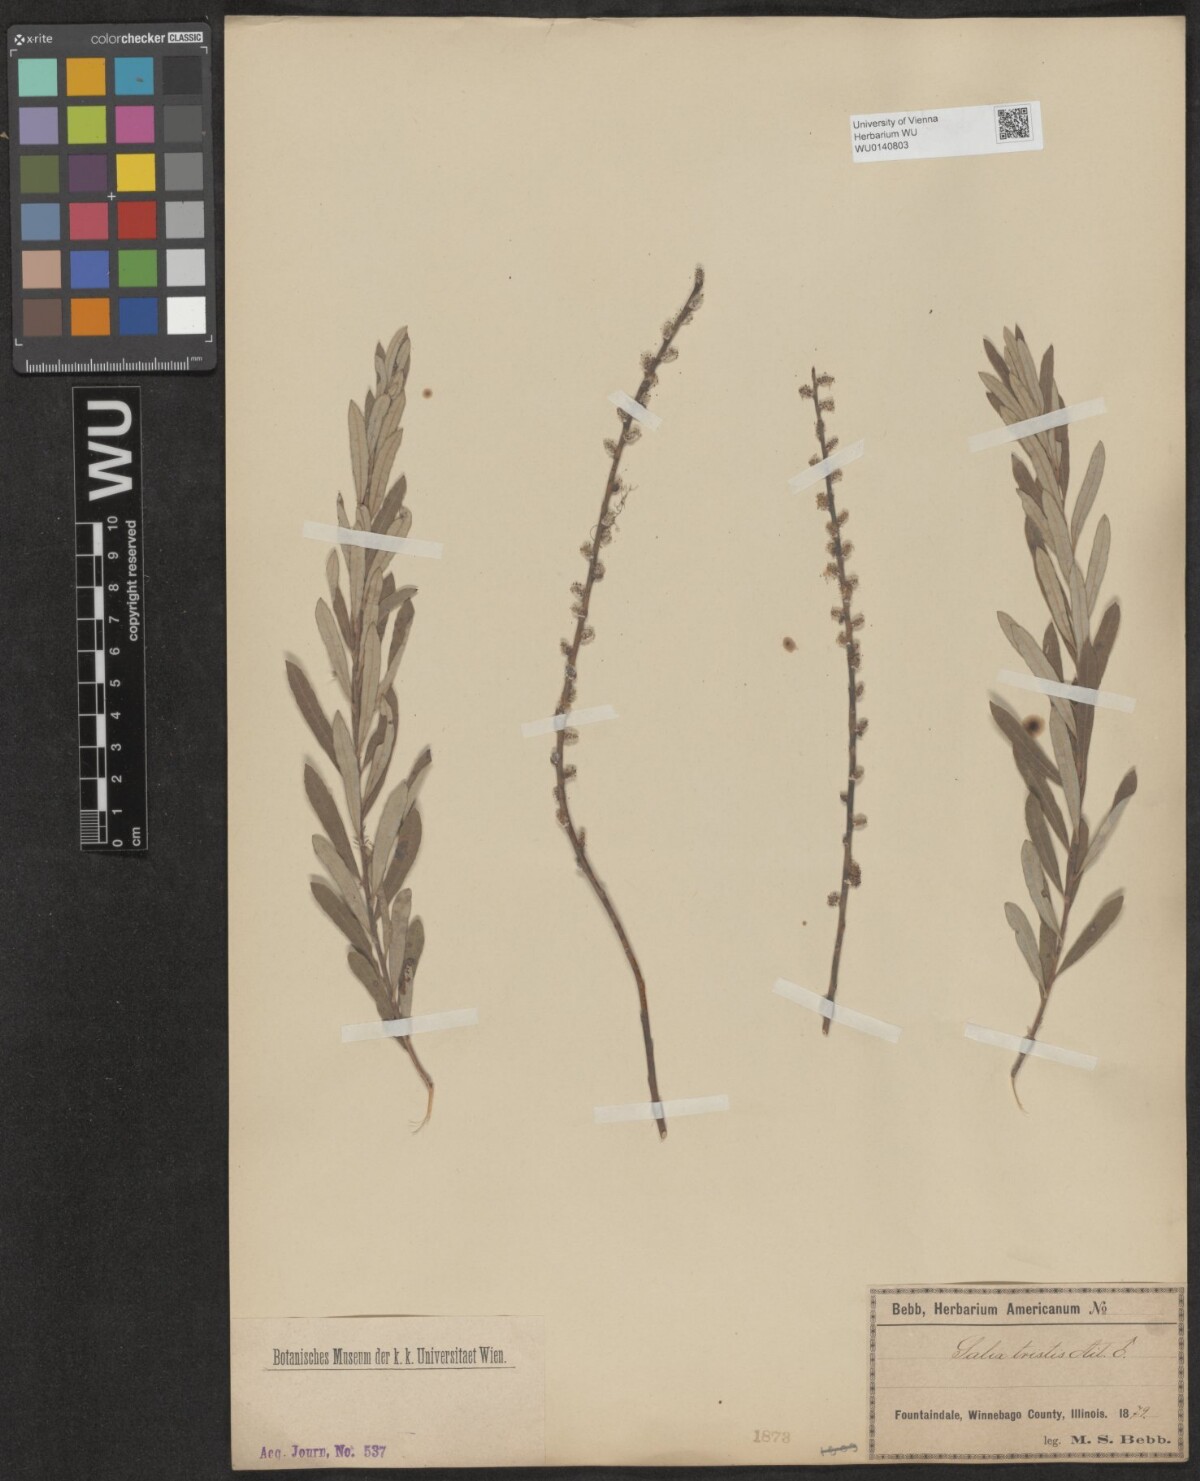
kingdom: Plantae
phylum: Tracheophyta
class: Magnoliopsida
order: Malpighiales
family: Salicaceae
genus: Salix
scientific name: Salix humilis
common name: Prairie willow
